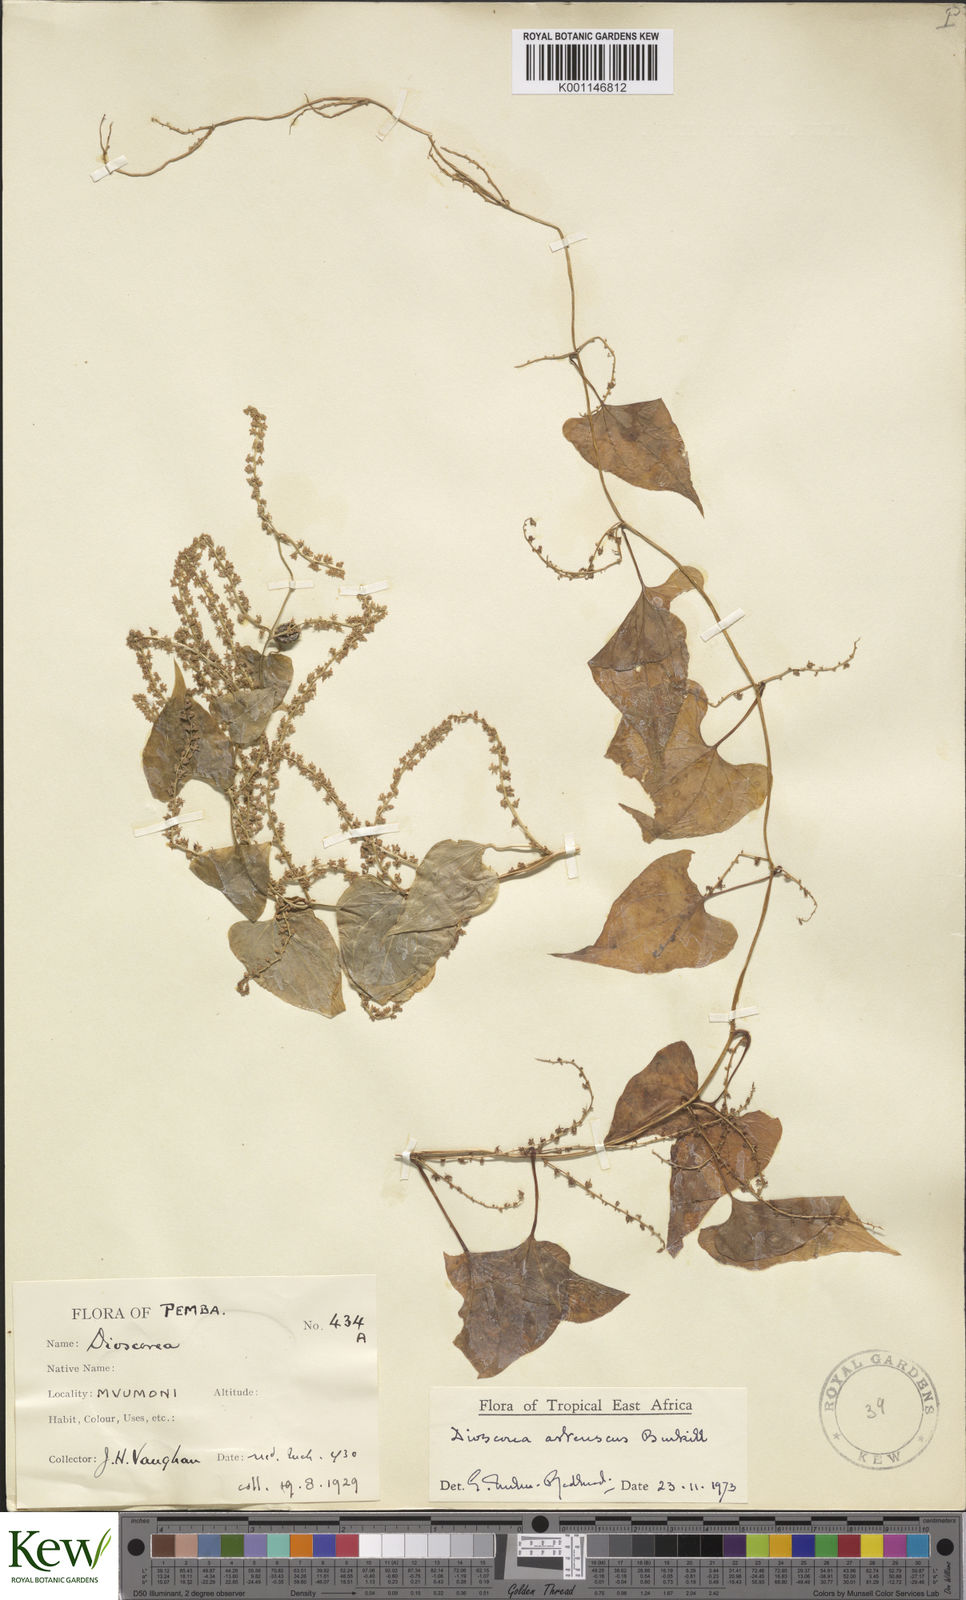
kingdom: Plantae
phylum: Tracheophyta
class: Liliopsida
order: Dioscoreales
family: Dioscoreaceae
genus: Dioscorea
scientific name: Dioscorea asteriscus
